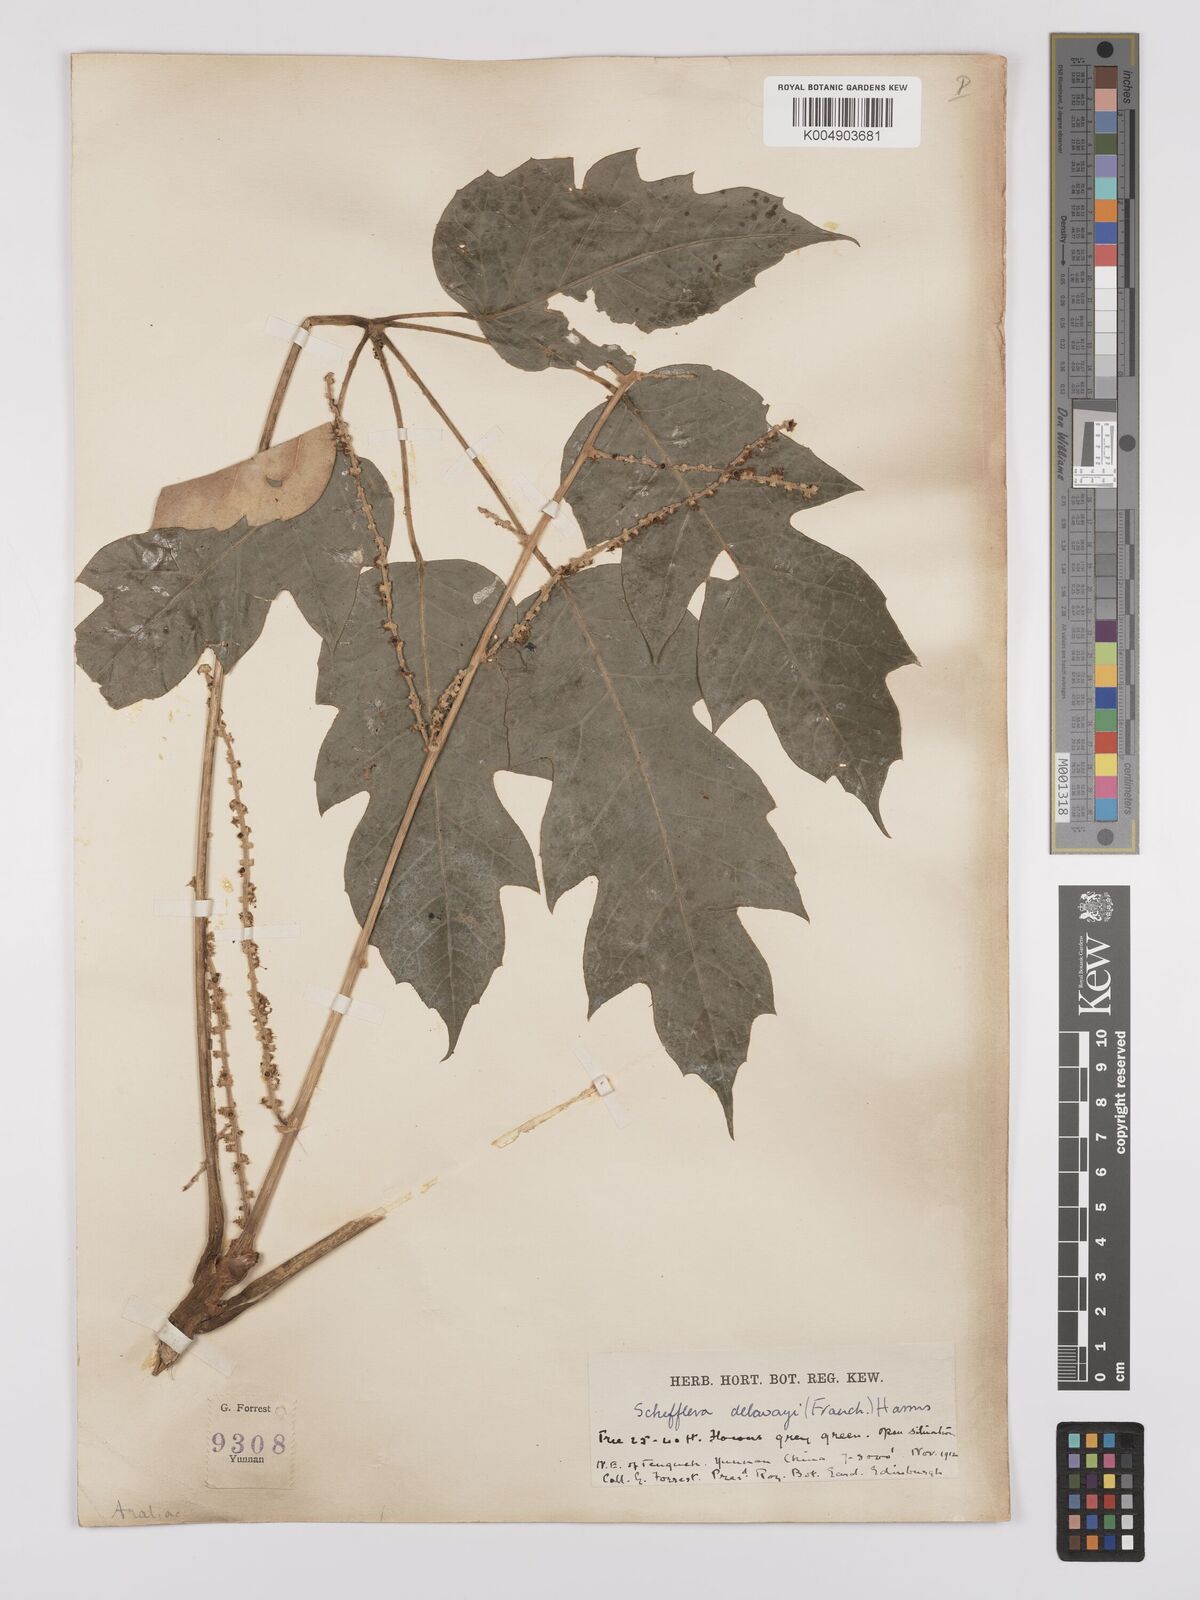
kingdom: Plantae
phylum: Tracheophyta
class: Magnoliopsida
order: Apiales
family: Araliaceae
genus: Heptapleurum
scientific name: Heptapleurum delavayi
